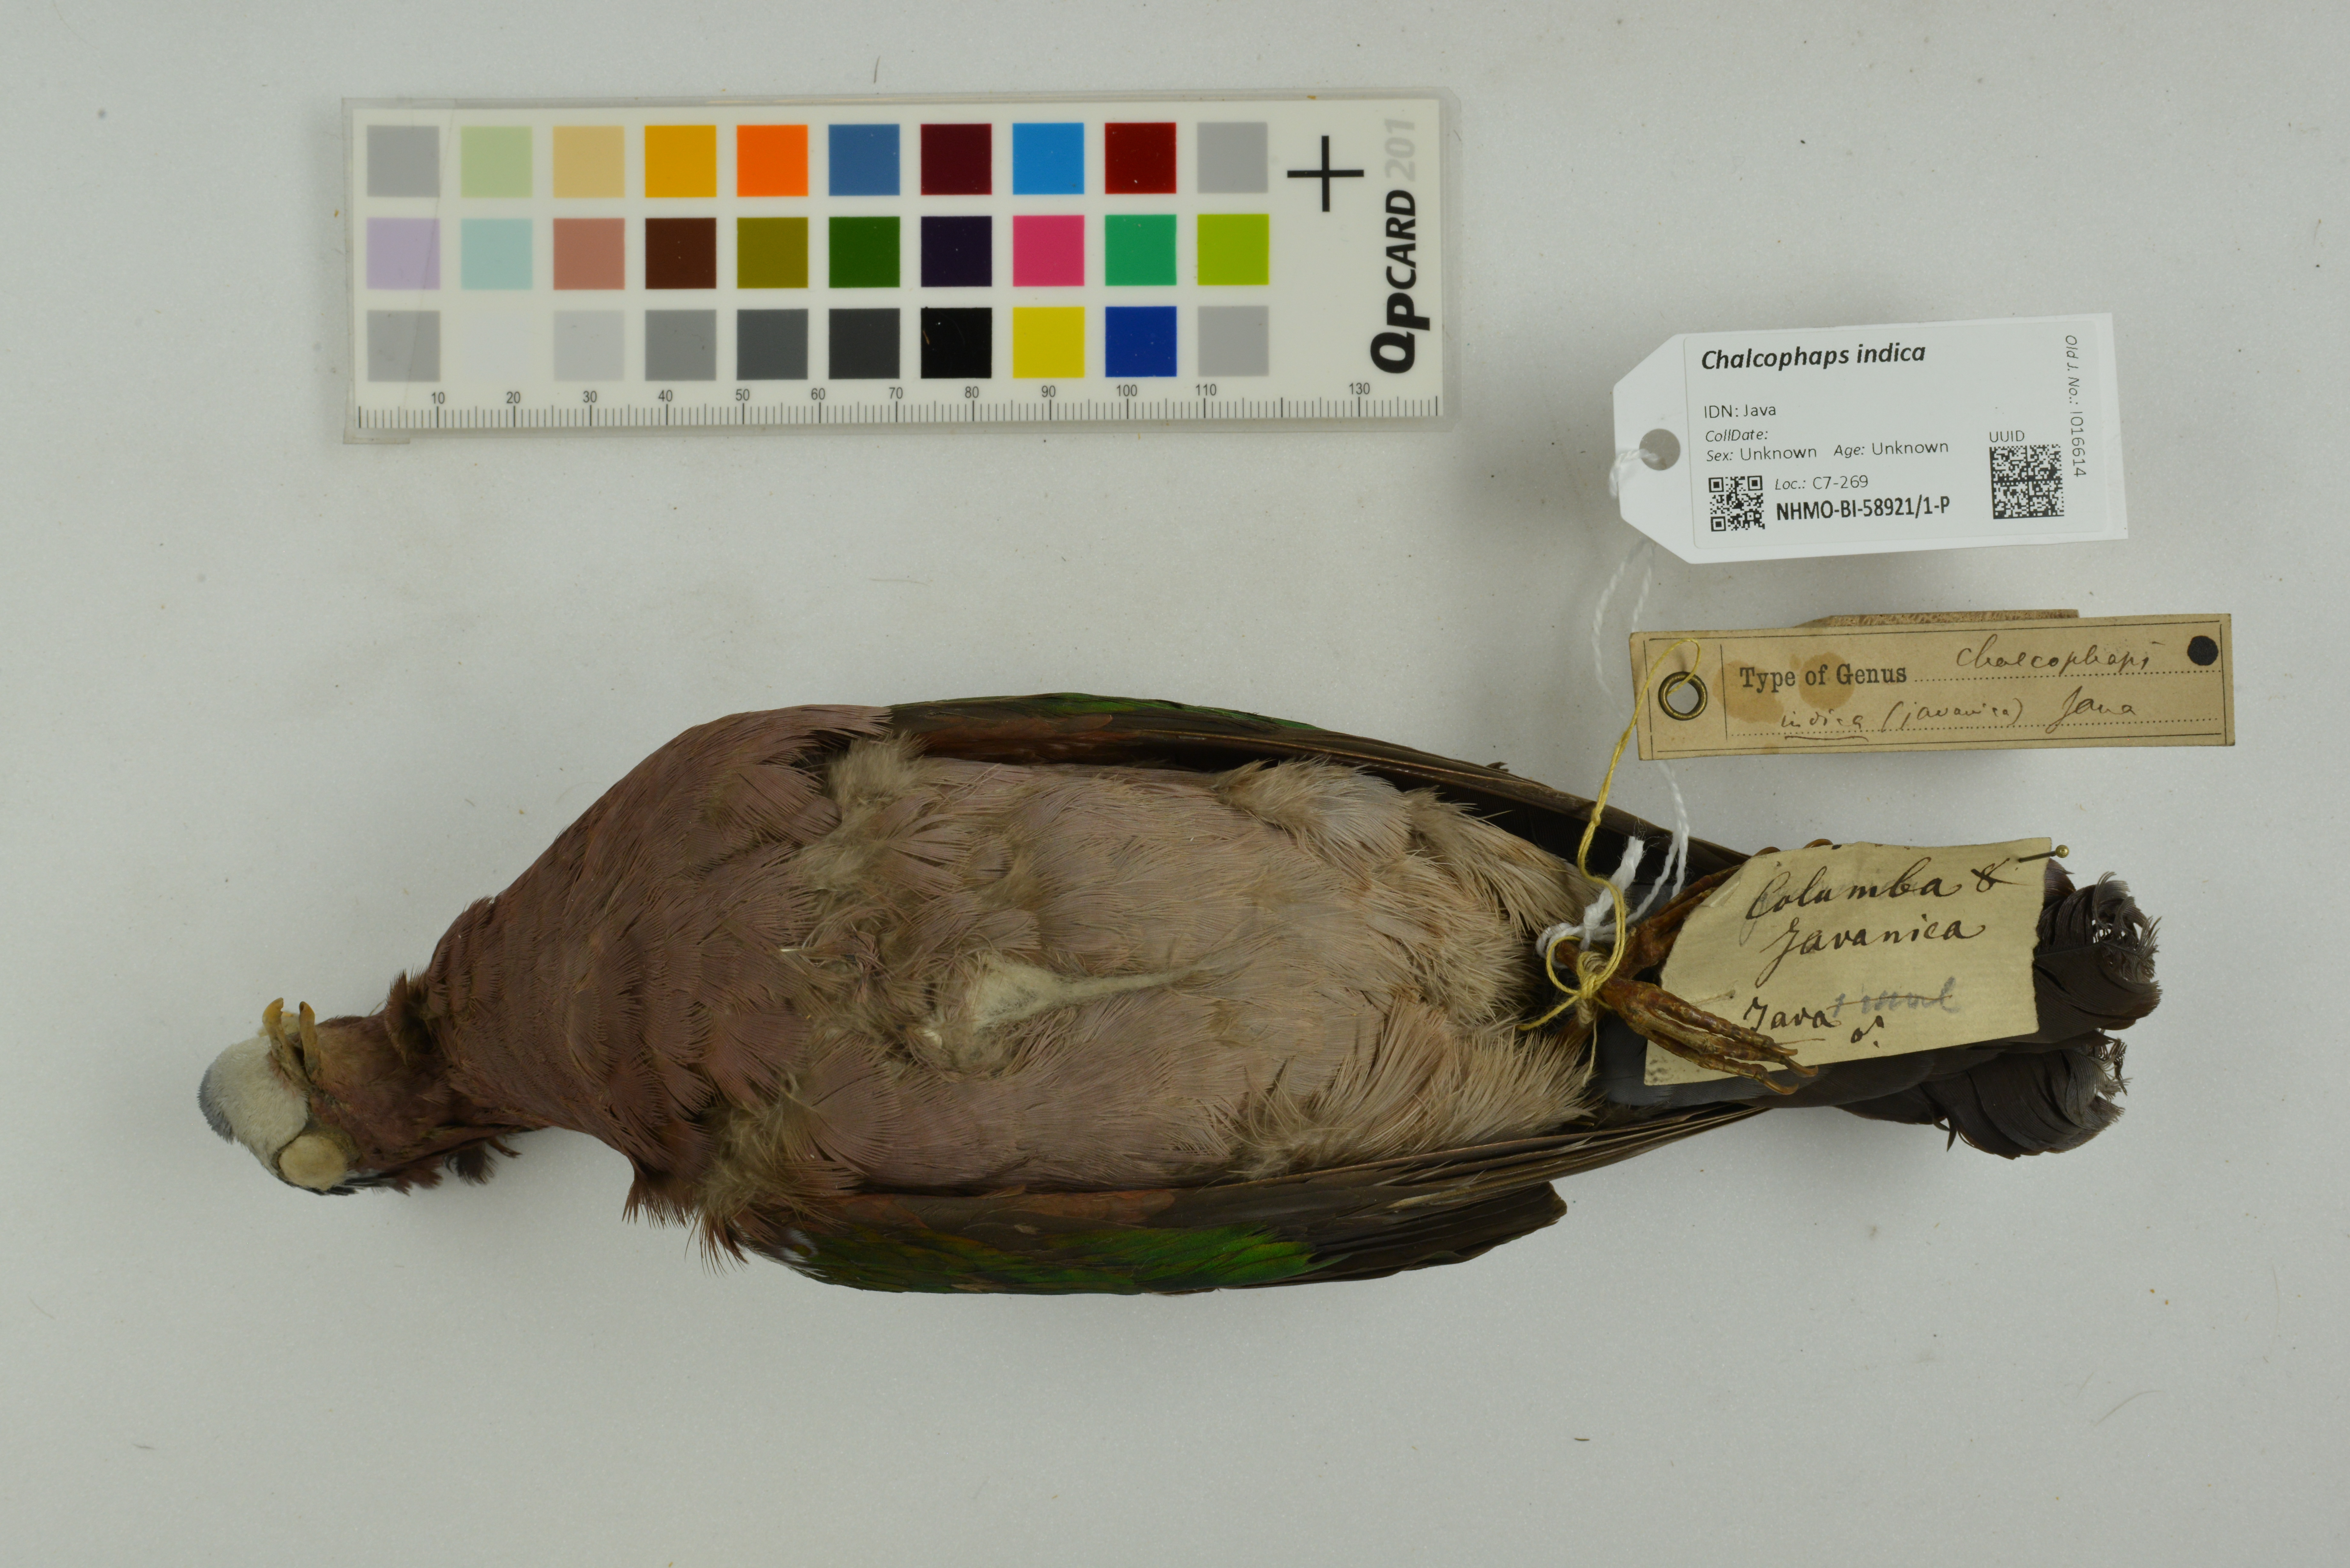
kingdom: Animalia
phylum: Chordata
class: Aves
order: Columbiformes
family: Columbidae
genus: Chalcophaps
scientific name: Chalcophaps indica
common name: Common emerald dove
